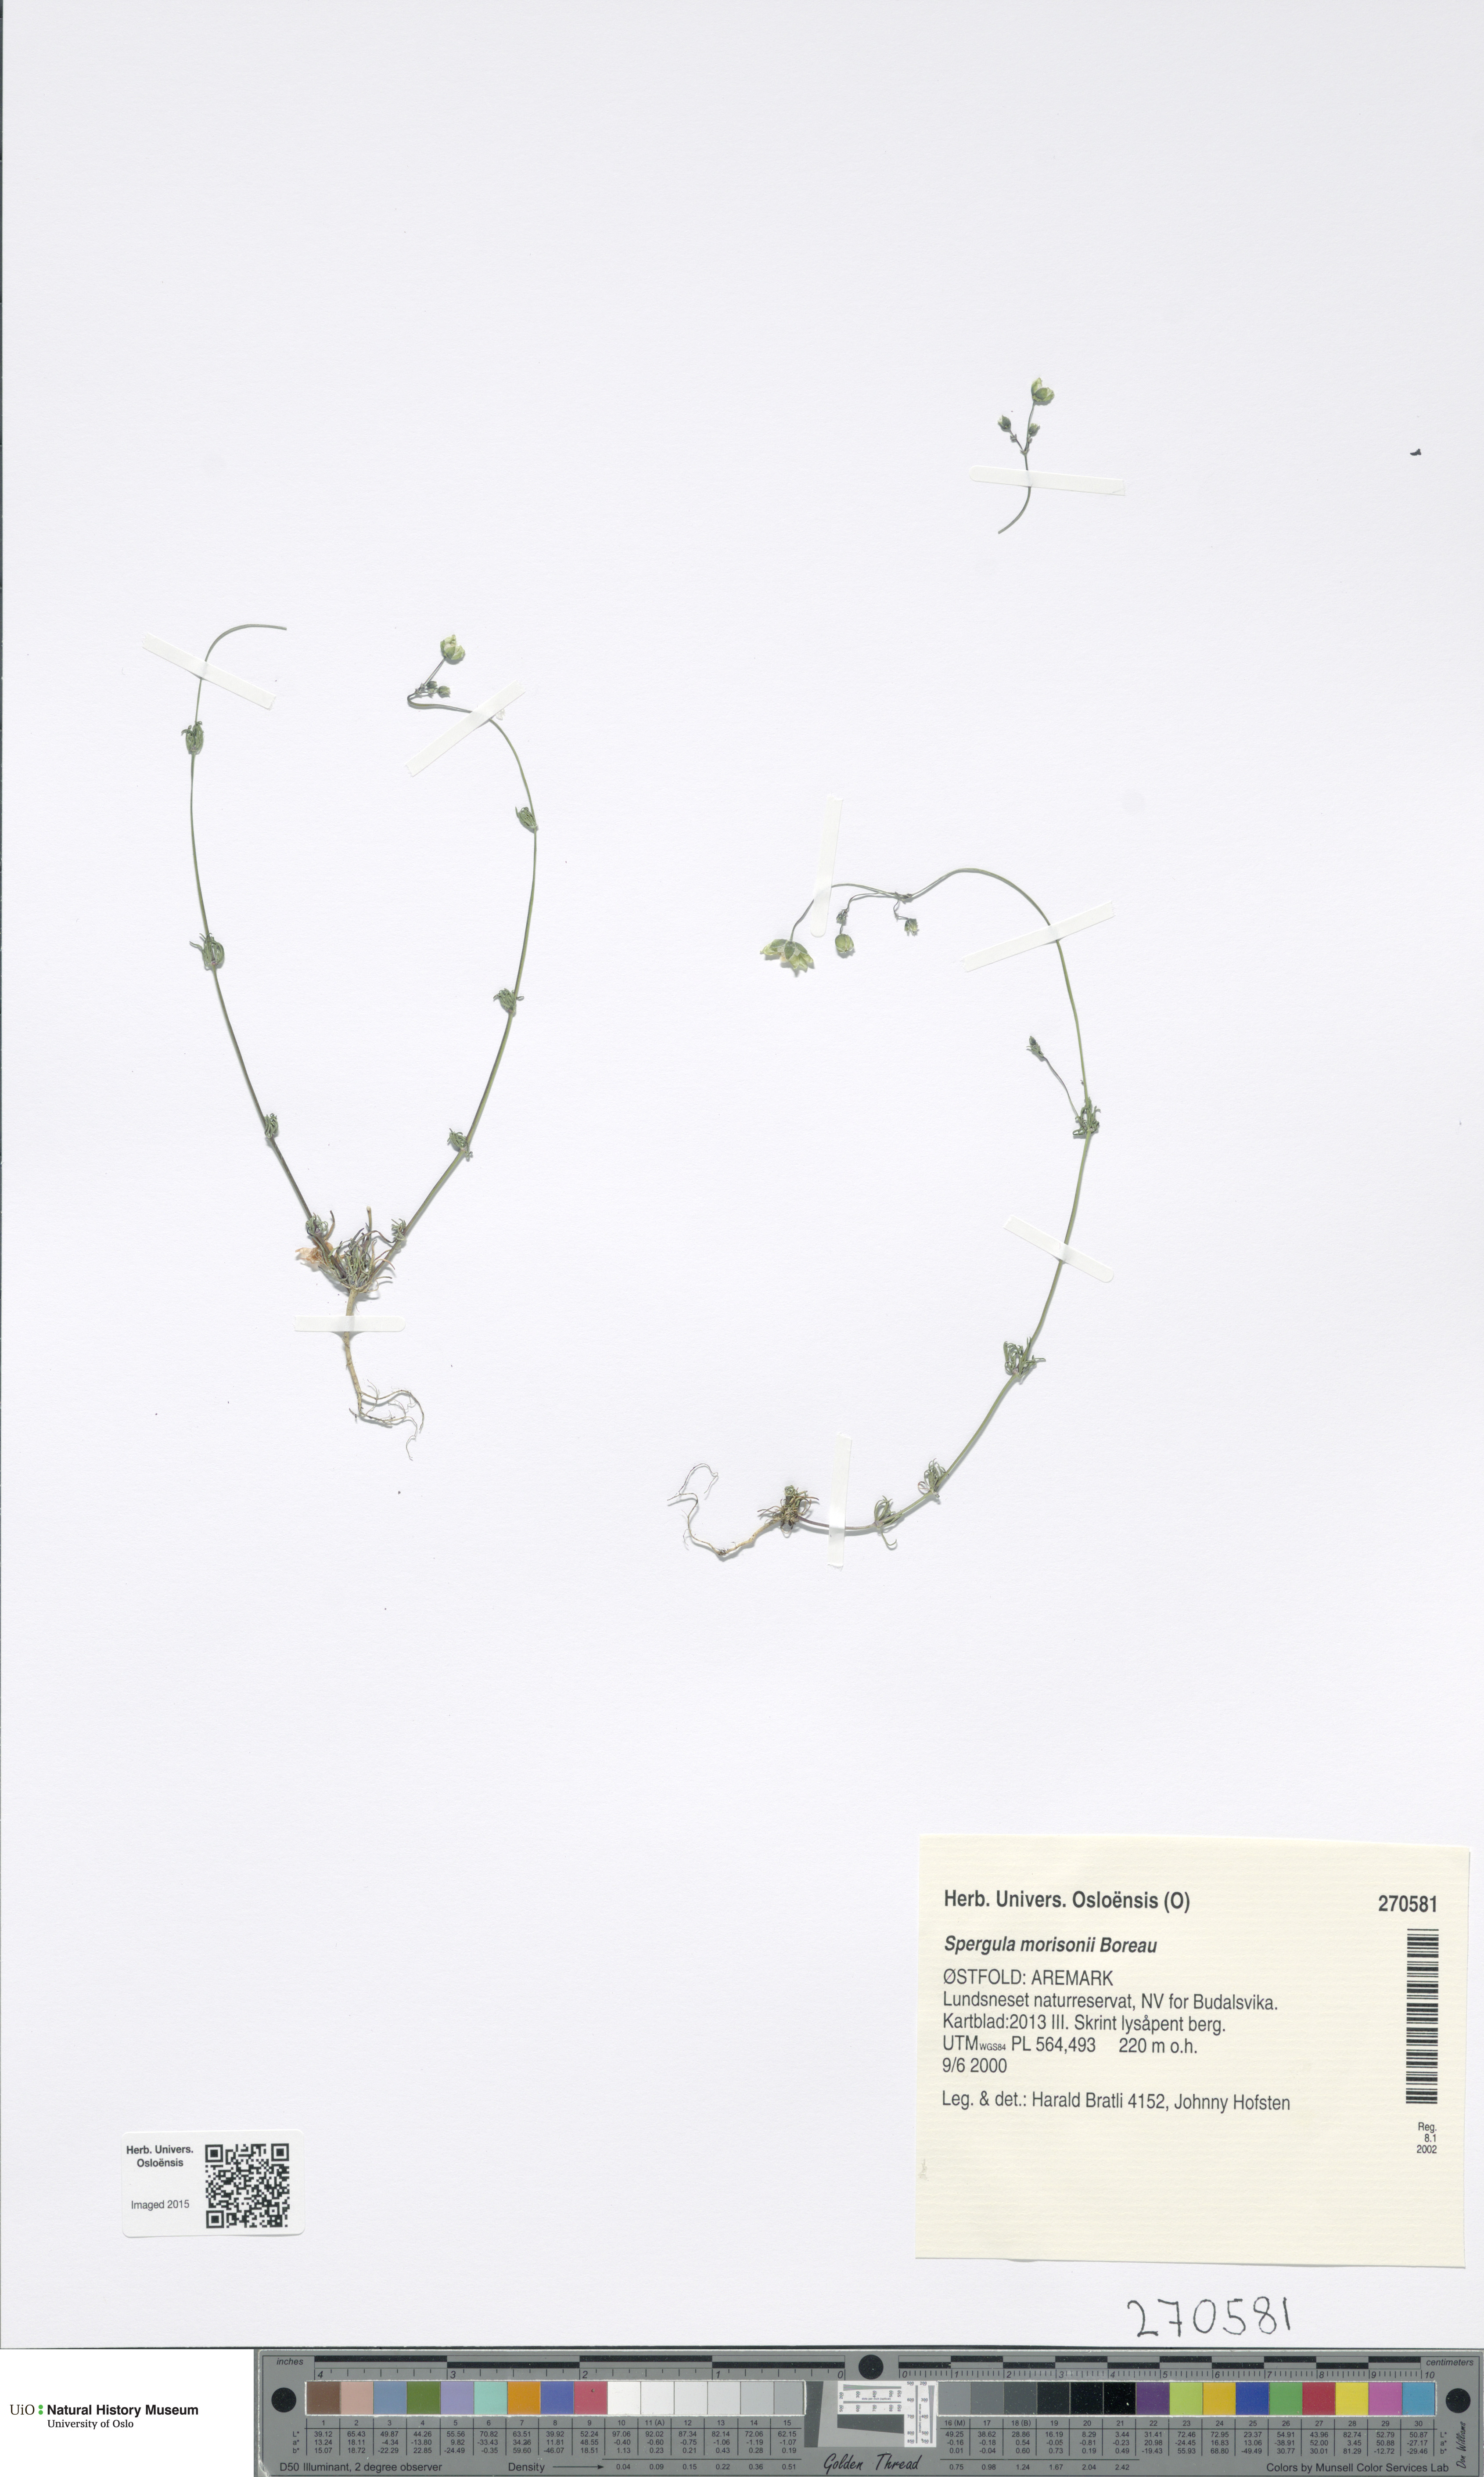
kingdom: Plantae
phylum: Tracheophyta
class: Magnoliopsida
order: Caryophyllales
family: Caryophyllaceae
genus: Spergula
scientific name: Spergula morisonii
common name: Pearlwort spurrey
